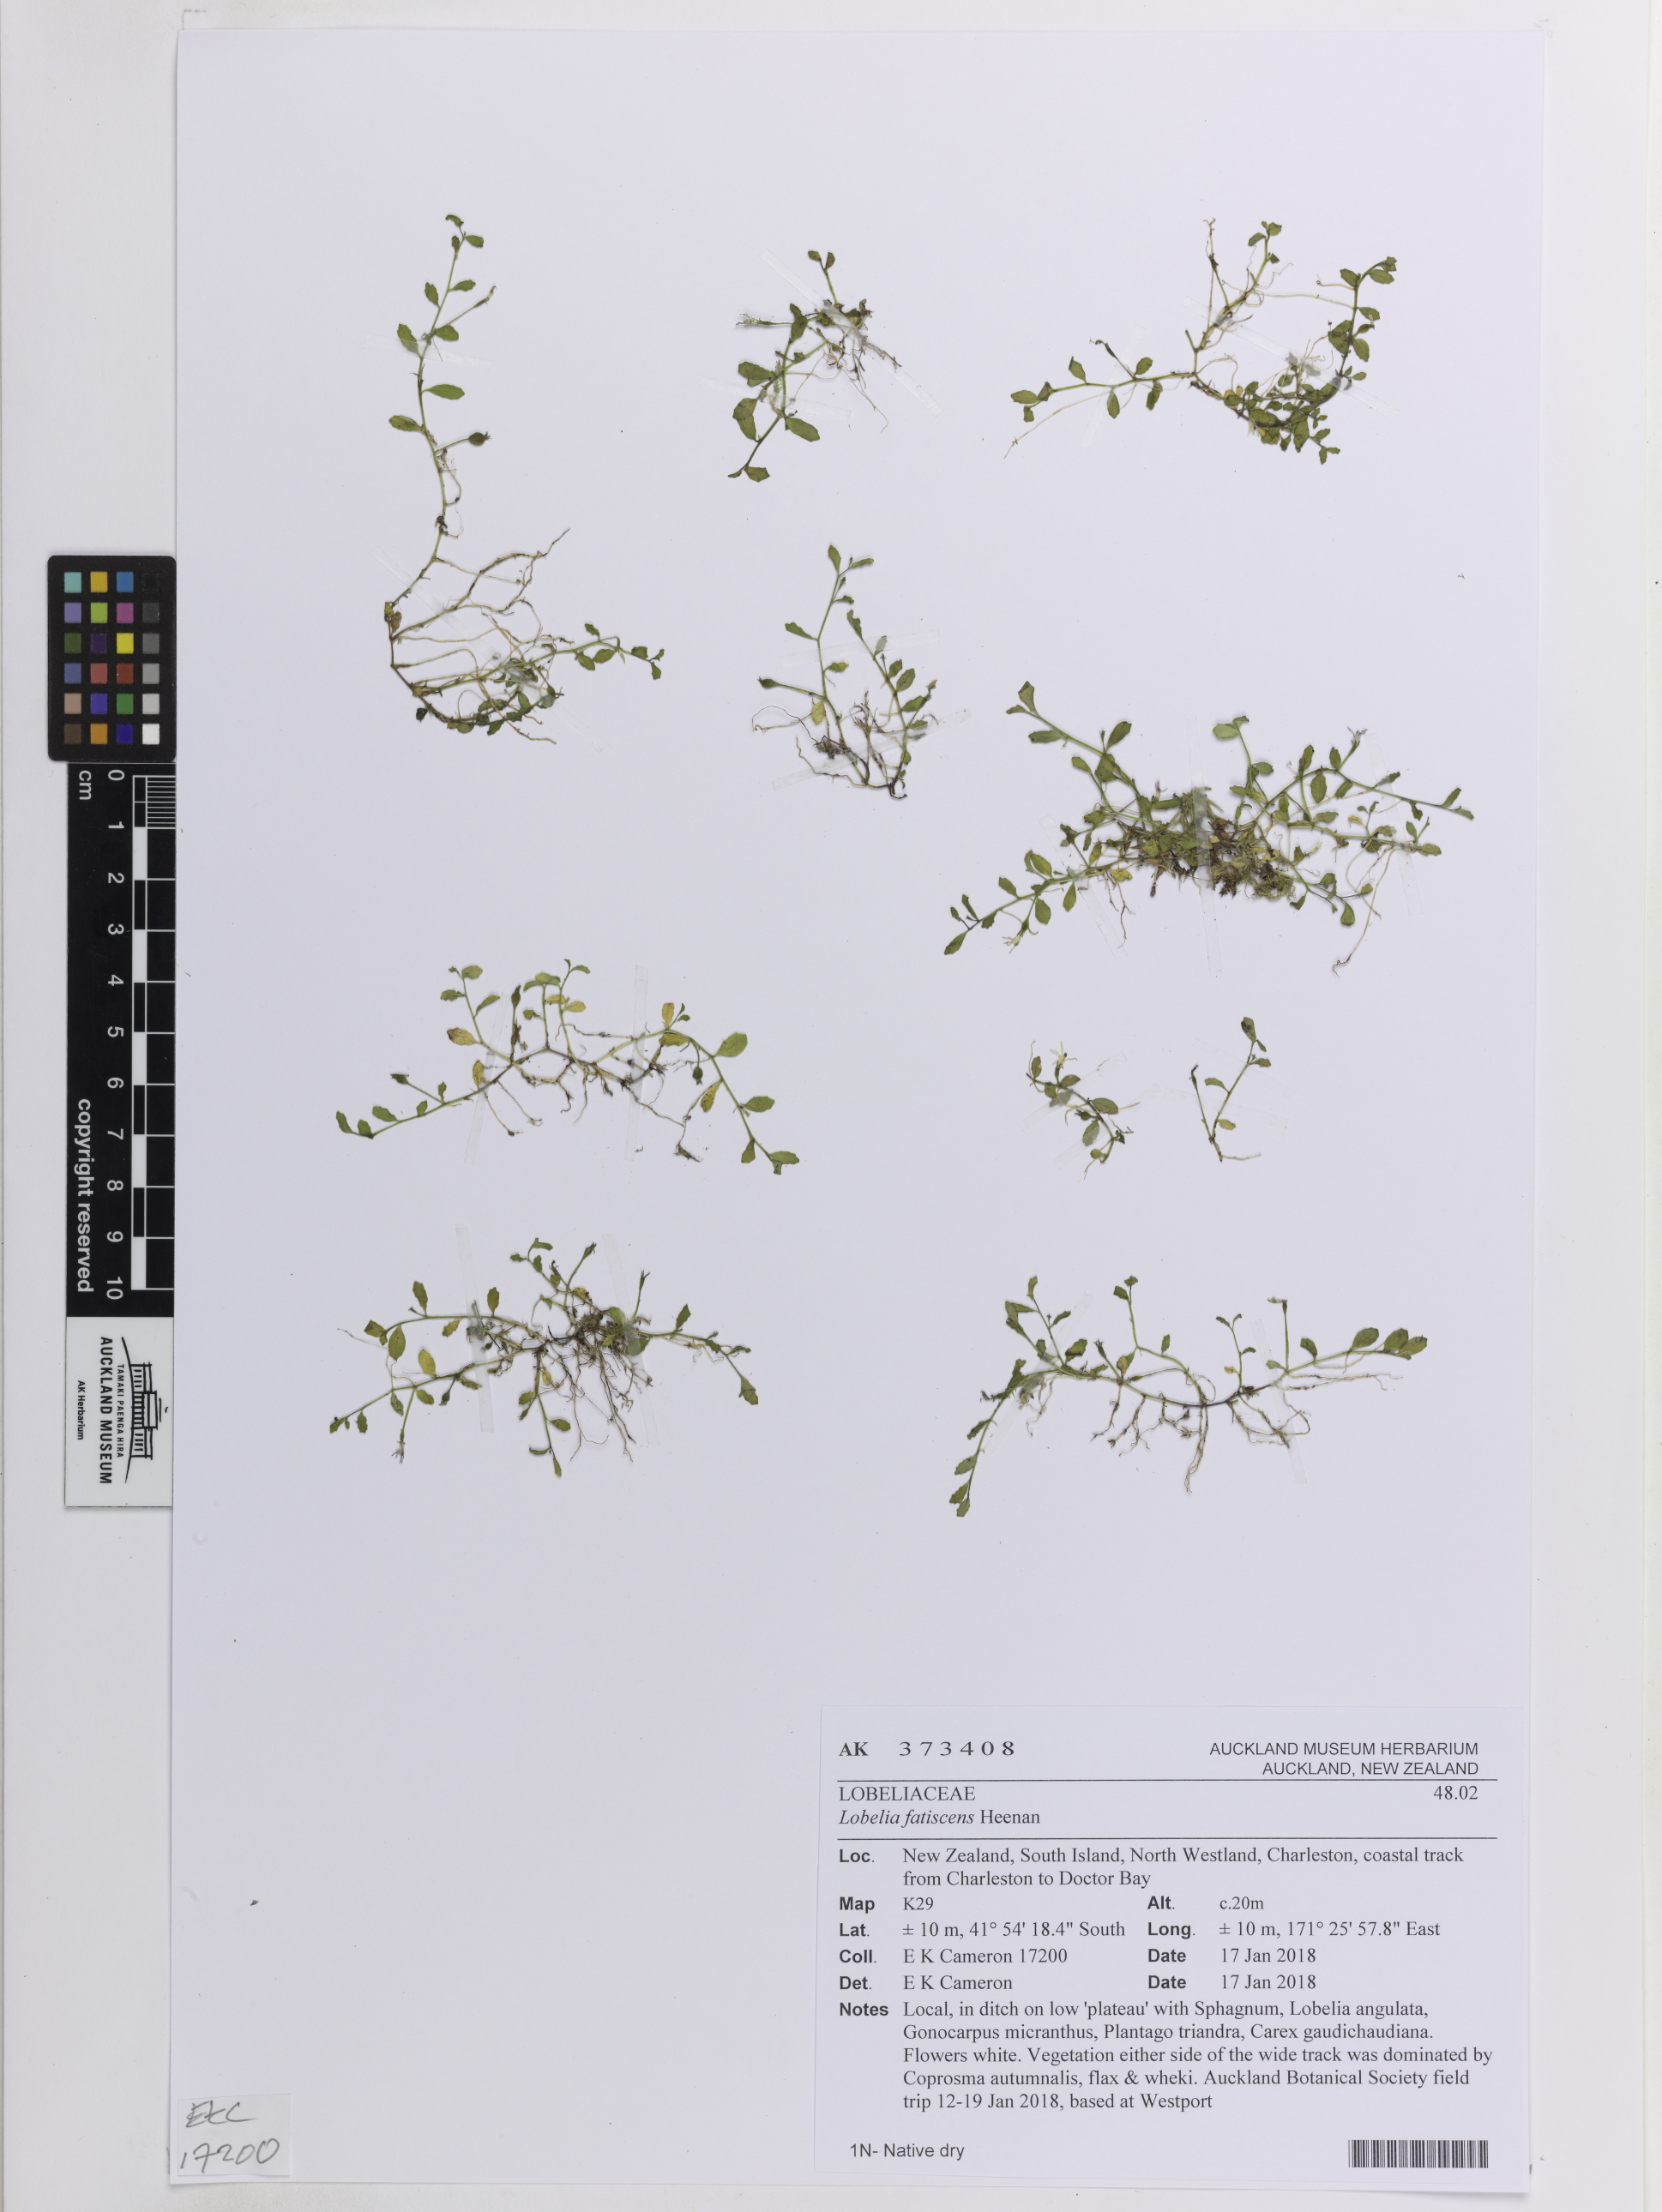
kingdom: Plantae
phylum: Tracheophyta
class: Magnoliopsida
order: Asterales
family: Campanulaceae
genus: Lobelia
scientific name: Lobelia fatiscens
